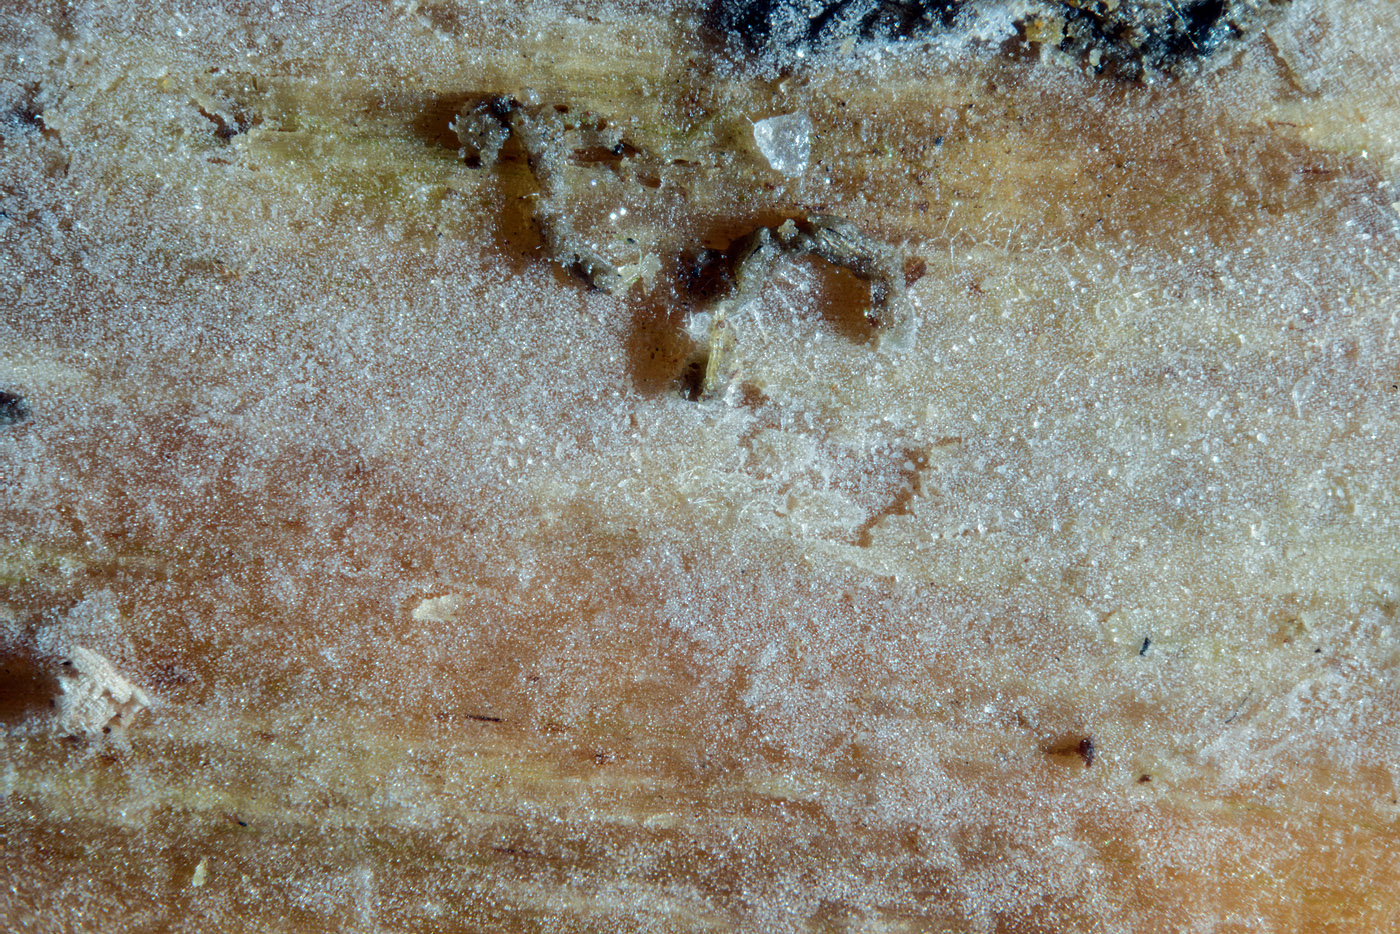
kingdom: Fungi
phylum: Basidiomycota
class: Agaricomycetes
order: Cantharellales
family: Hydnaceae
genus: Repetobasidium
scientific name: Repetobasidium vestitum
